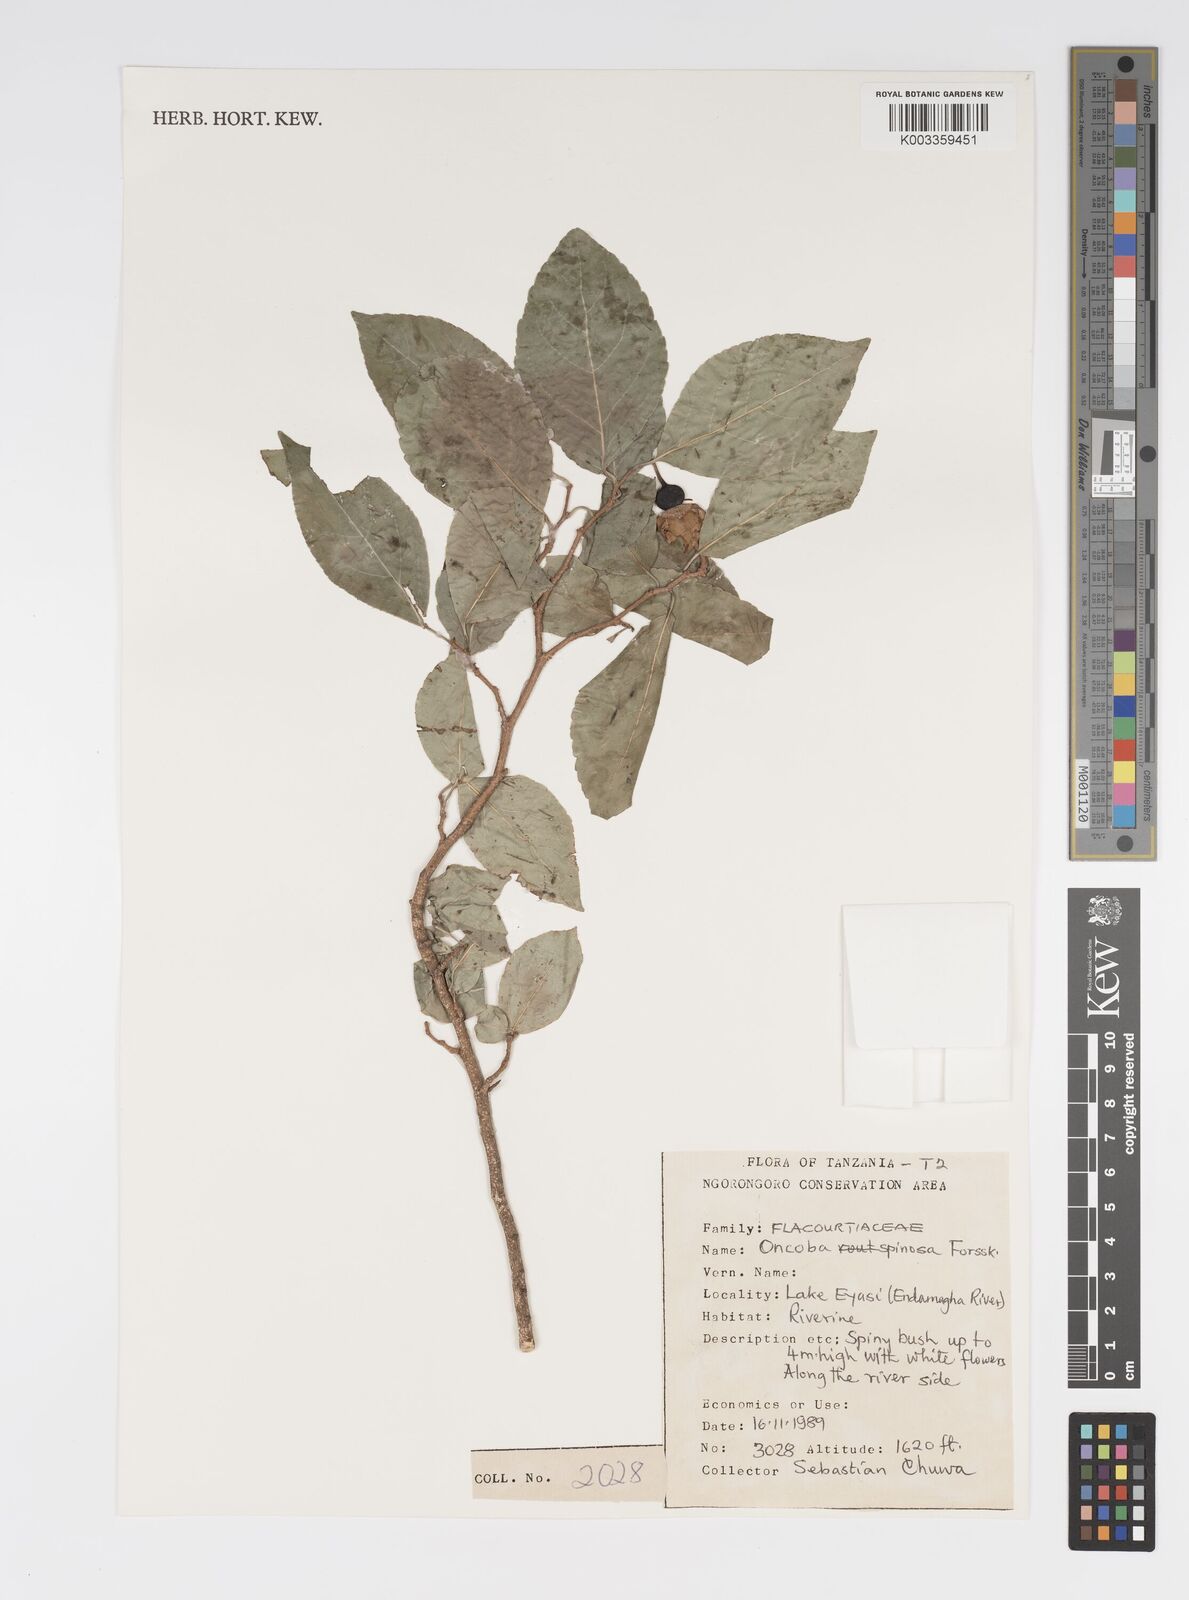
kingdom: Plantae
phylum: Tracheophyta
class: Magnoliopsida
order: Malpighiales
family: Salicaceae
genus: Oncoba
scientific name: Oncoba spinosa
